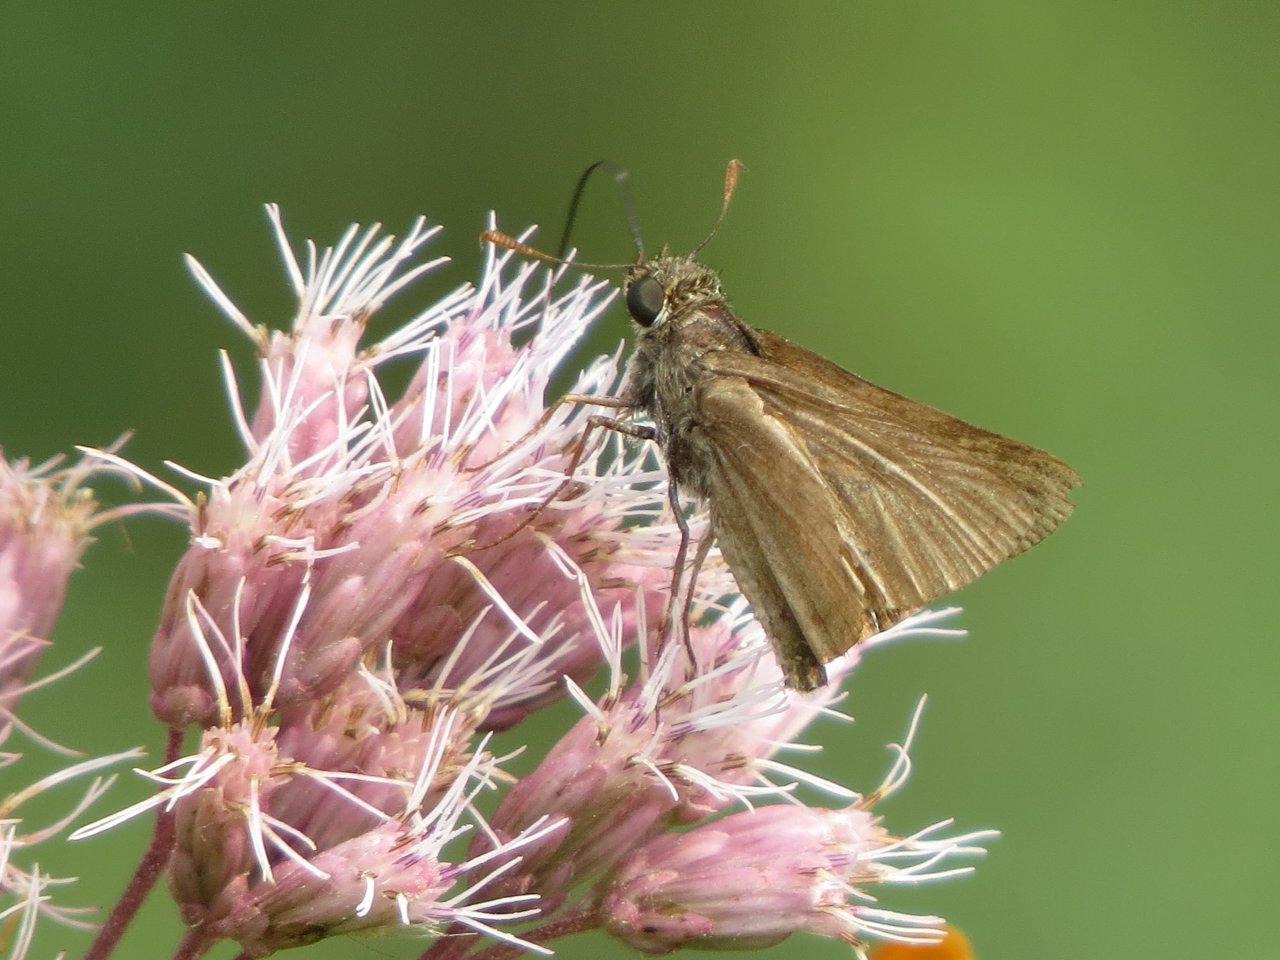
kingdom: Animalia
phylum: Arthropoda
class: Insecta
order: Lepidoptera
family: Hesperiidae
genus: Euphyes
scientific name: Euphyes vestris
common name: Dun Skipper
